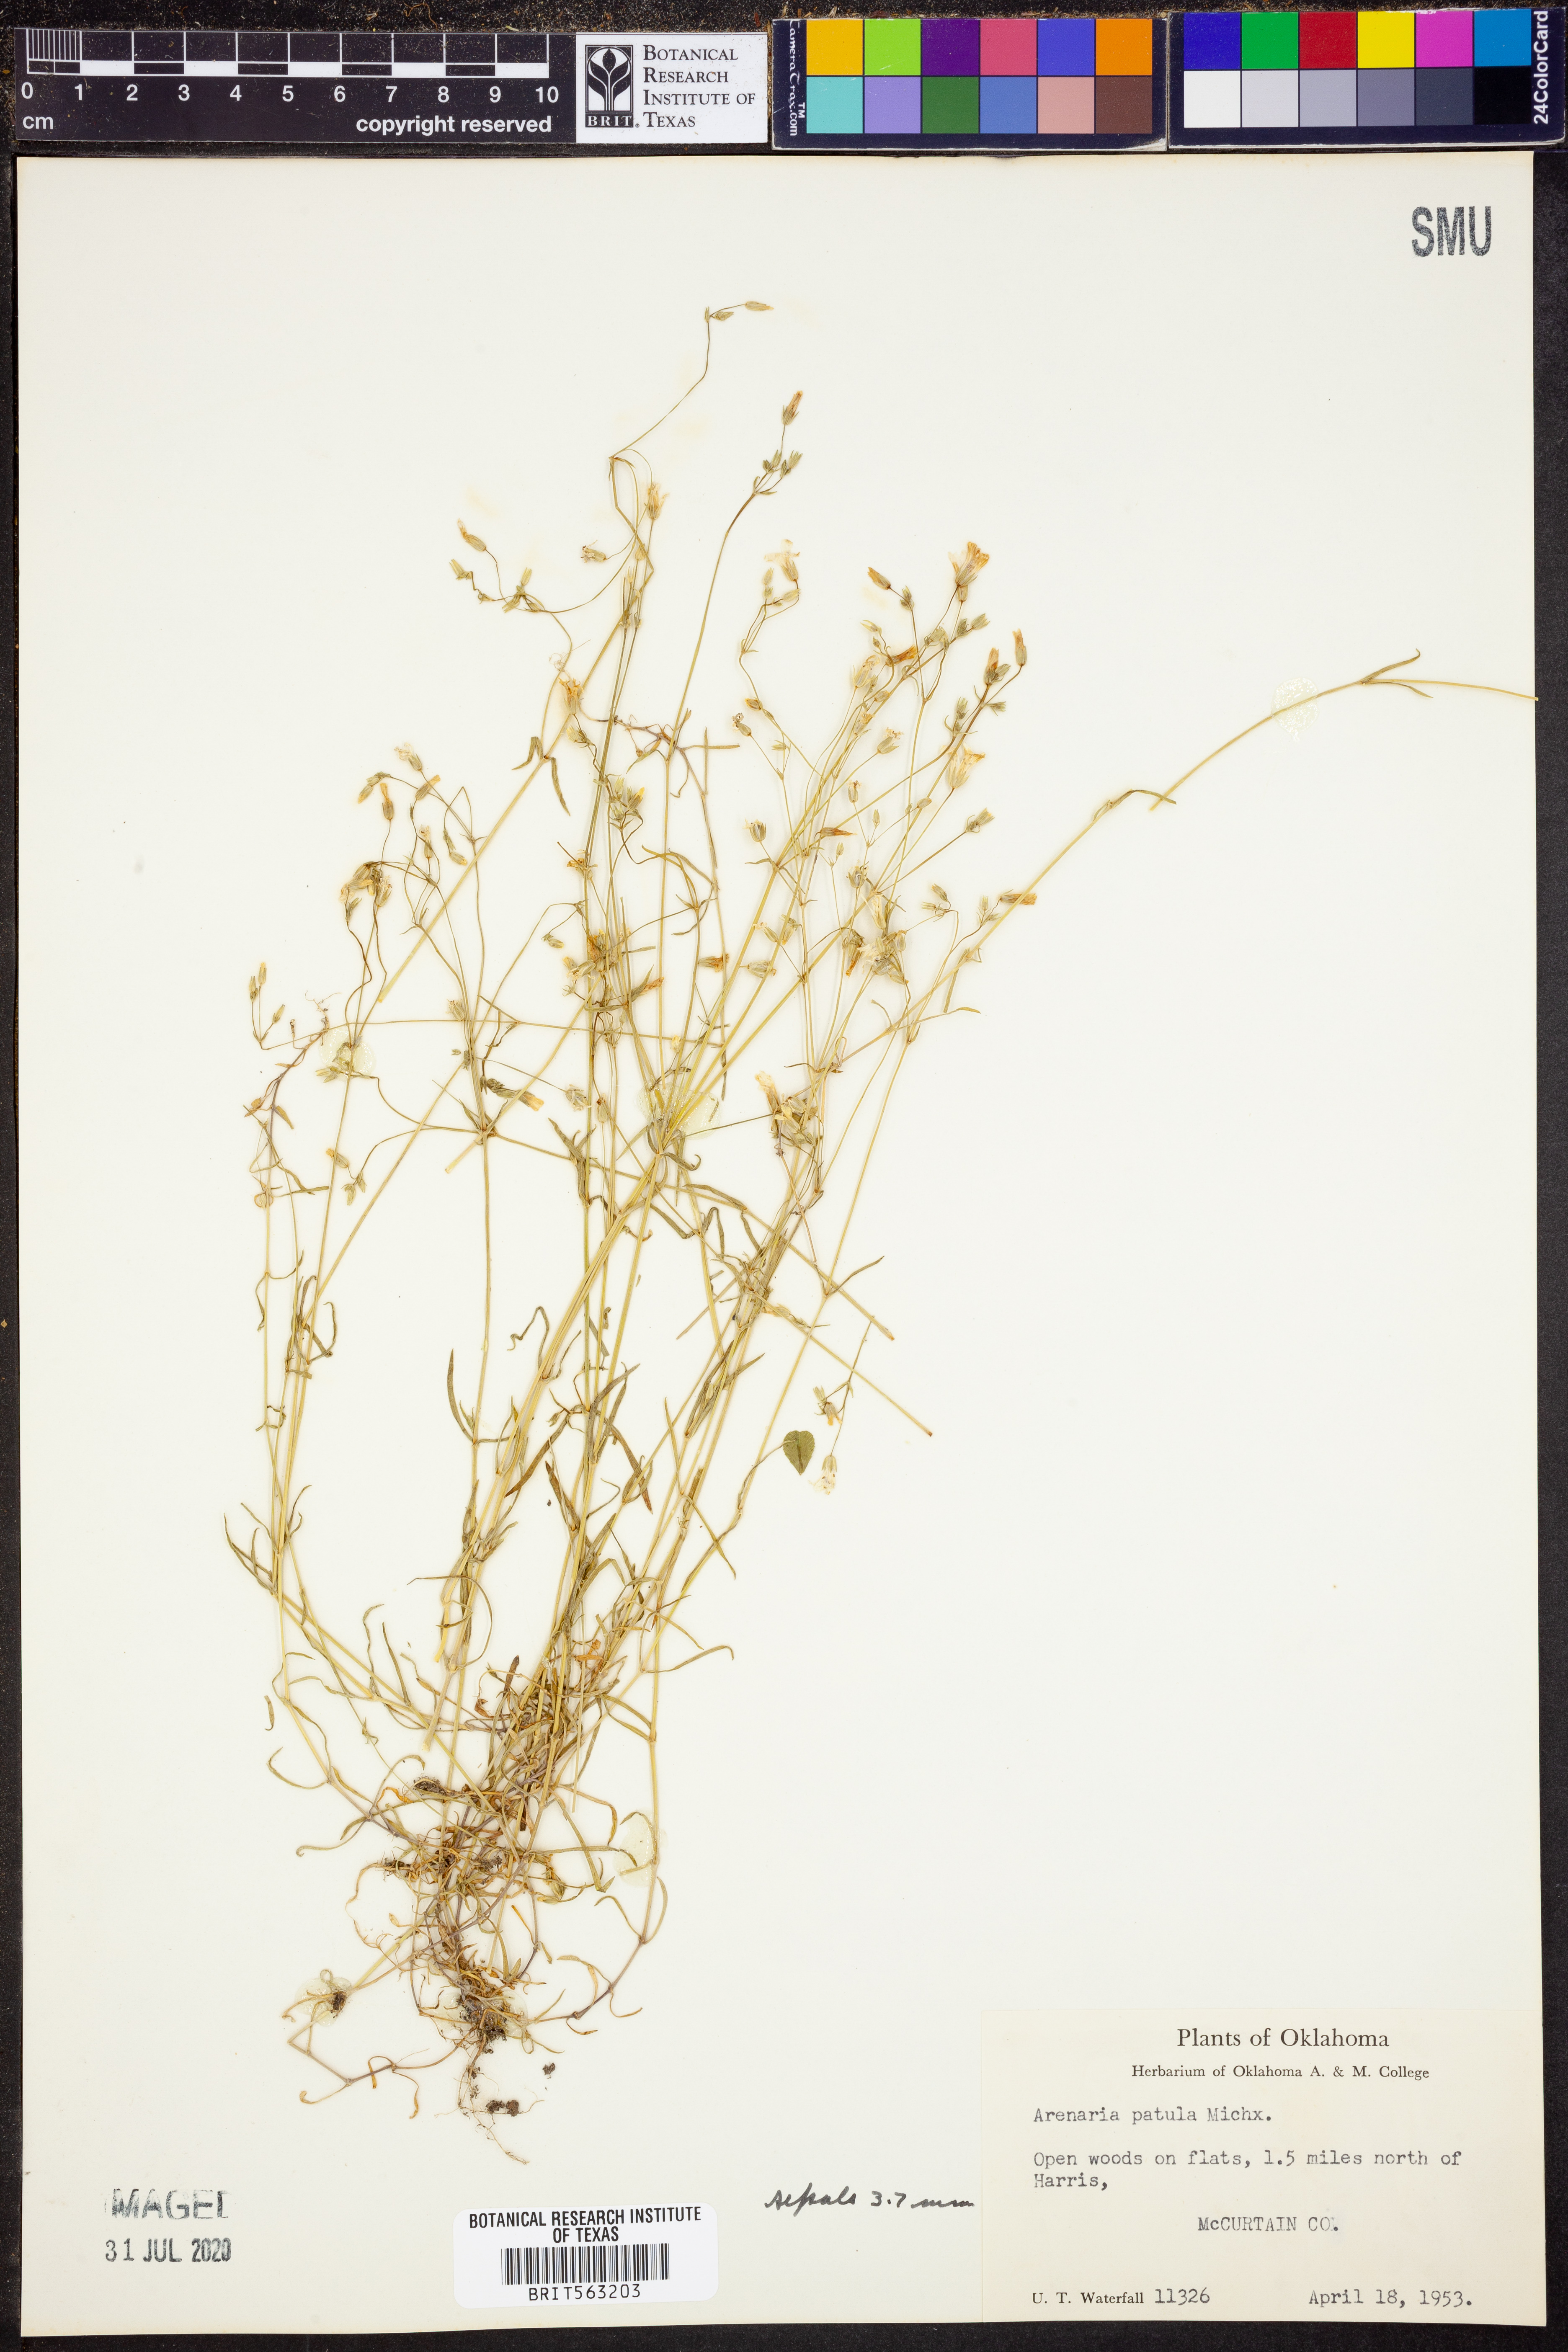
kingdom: Plantae
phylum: Tracheophyta
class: Magnoliopsida
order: Caryophyllales
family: Caryophyllaceae
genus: Mononeuria
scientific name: Mononeuria patula
